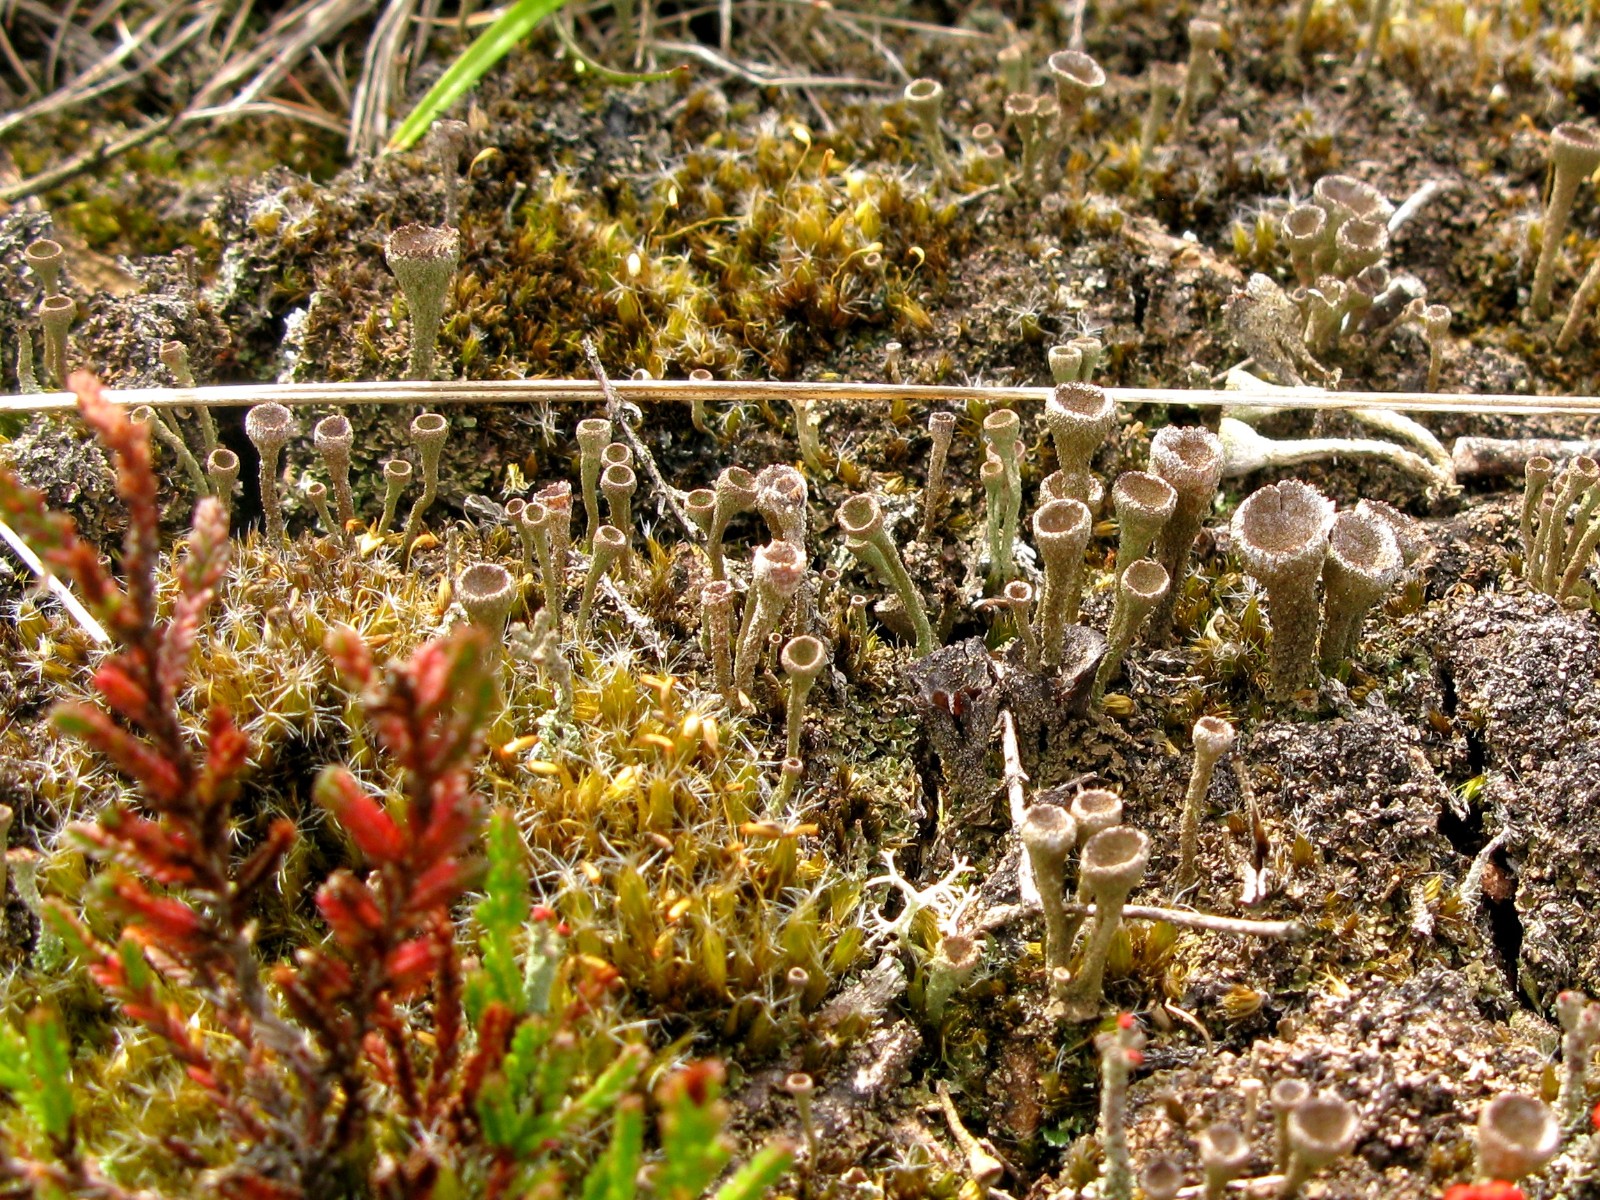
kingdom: Fungi
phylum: Ascomycota
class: Lecanoromycetes
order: Lecanorales
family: Cladoniaceae
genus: Cladonia
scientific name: Cladonia
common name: brungrøn bægerlav
